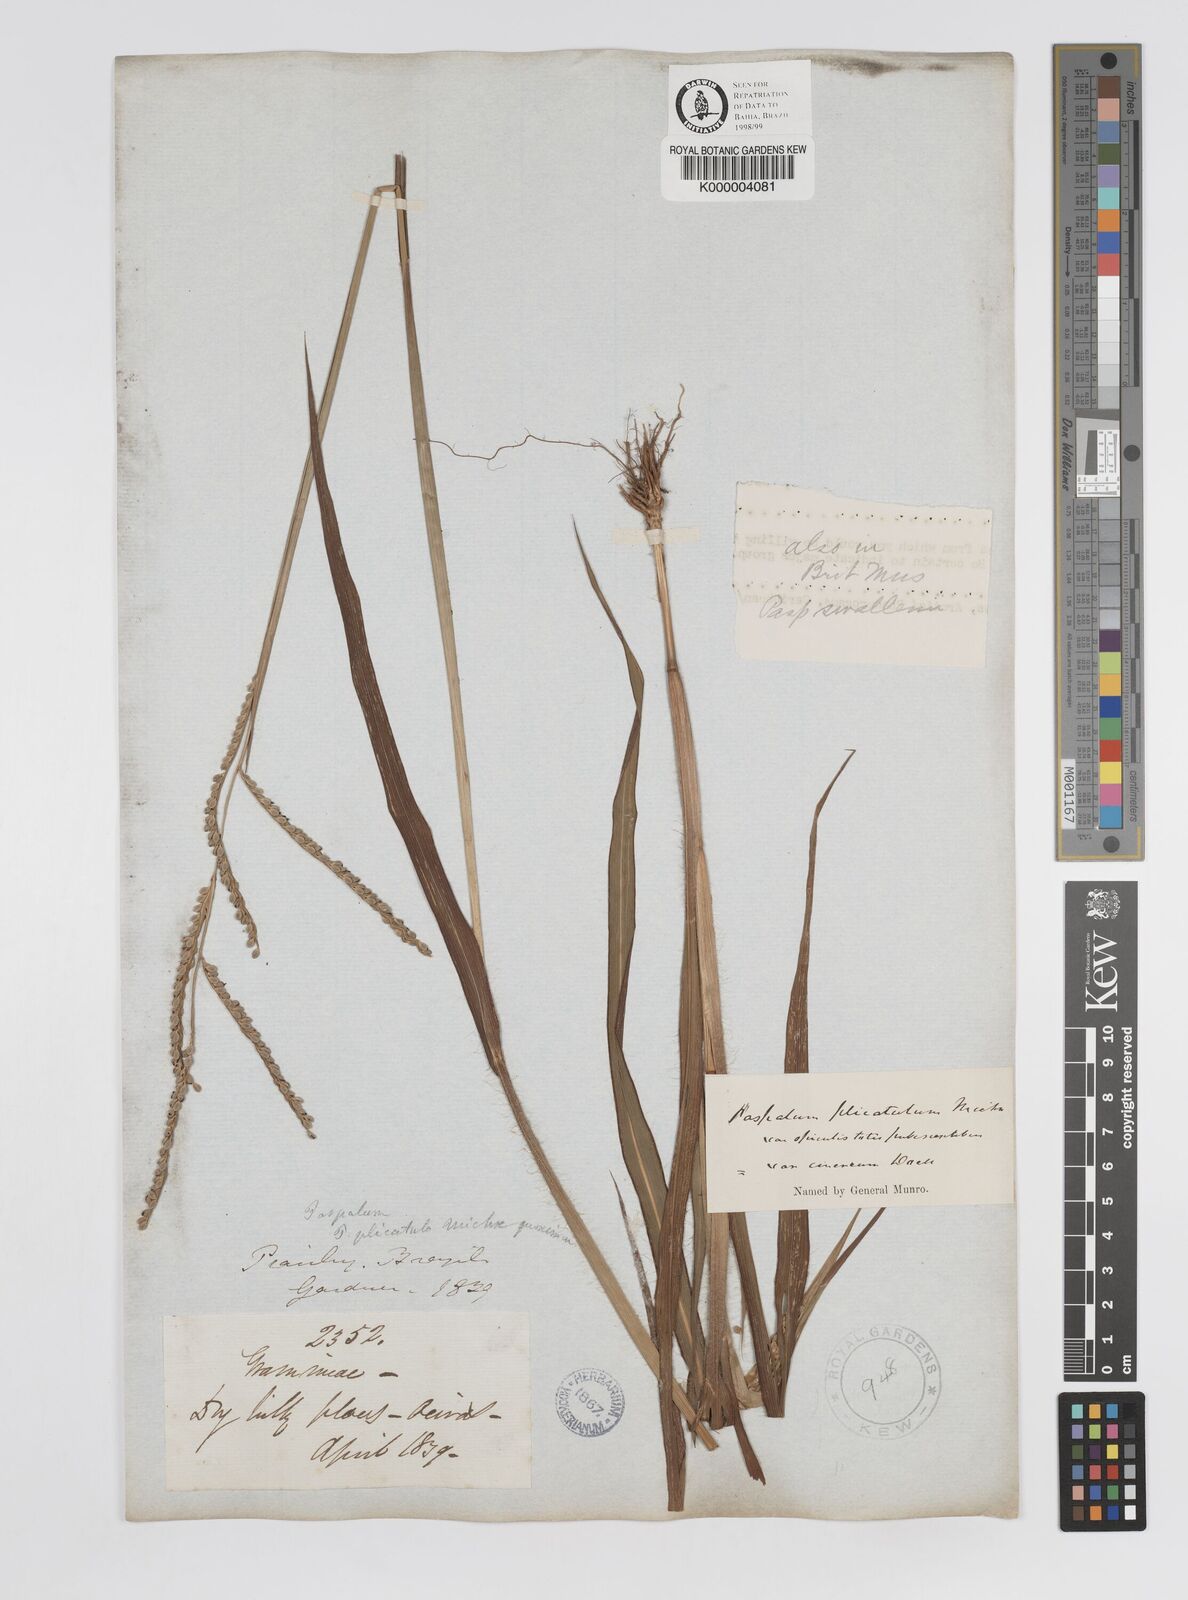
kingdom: Plantae
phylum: Tracheophyta
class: Liliopsida
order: Poales
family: Poaceae
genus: Paspalum
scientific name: Paspalum
